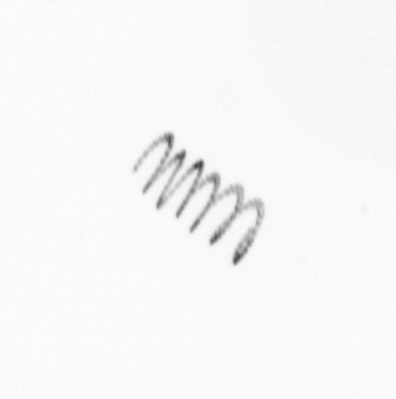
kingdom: Chromista
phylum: Ochrophyta
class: Bacillariophyceae
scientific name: Bacillariophyceae
